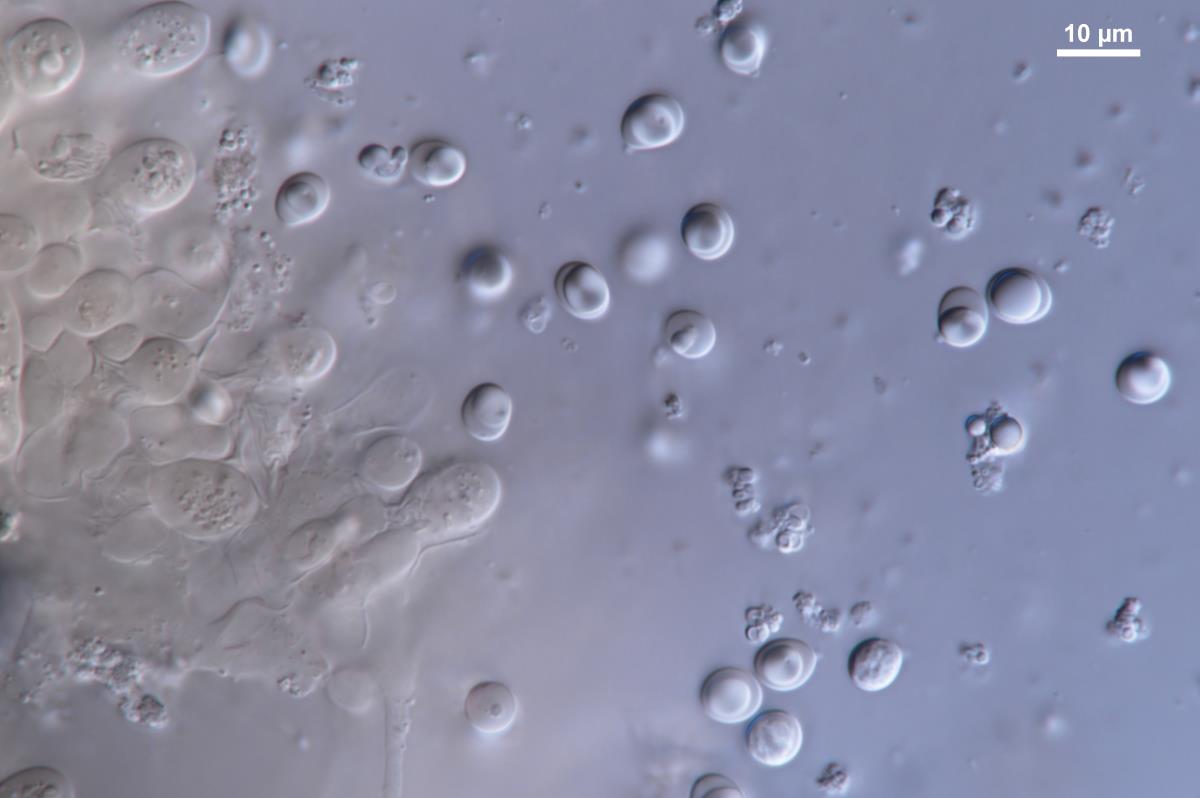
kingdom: Fungi
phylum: Basidiomycota
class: Agaricomycetes
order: Agaricales
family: Tricholomataceae
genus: Tricholoma
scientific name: Tricholoma
